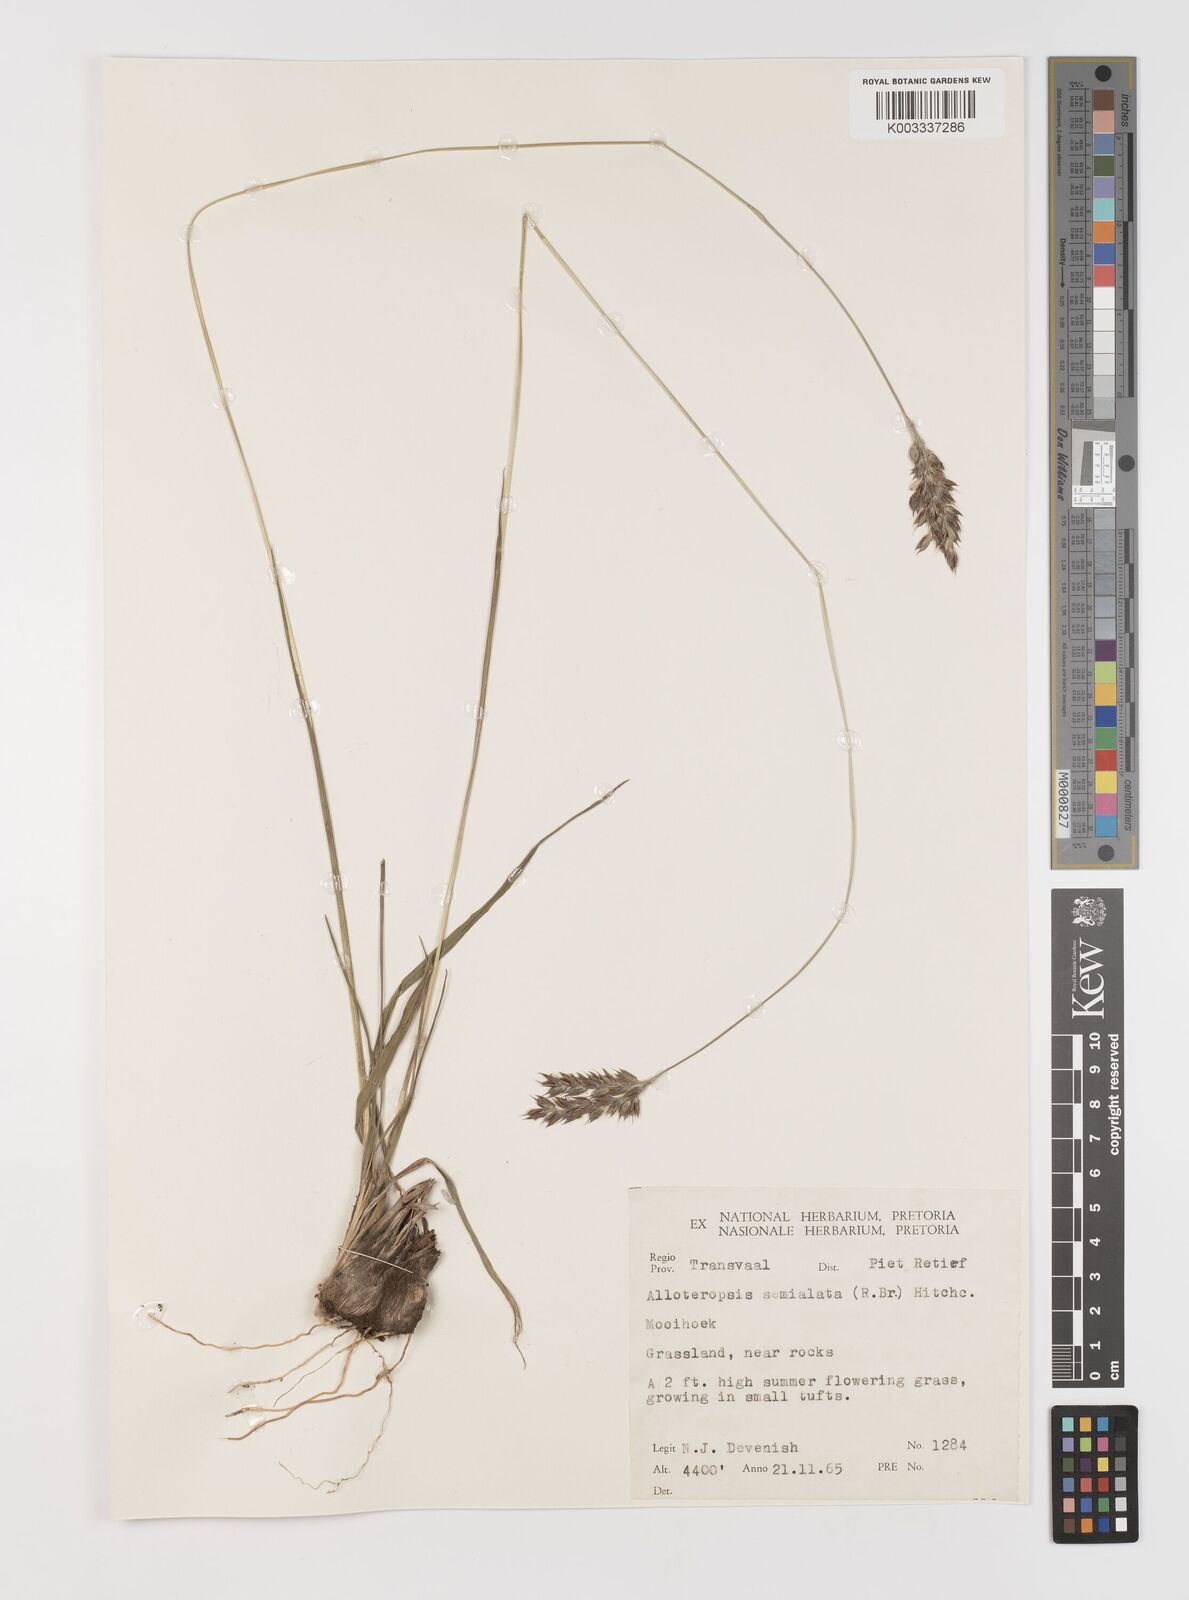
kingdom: Plantae
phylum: Tracheophyta
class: Liliopsida
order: Poales
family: Poaceae
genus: Alloteropsis
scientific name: Alloteropsis semialata
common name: Cockatoo grass
